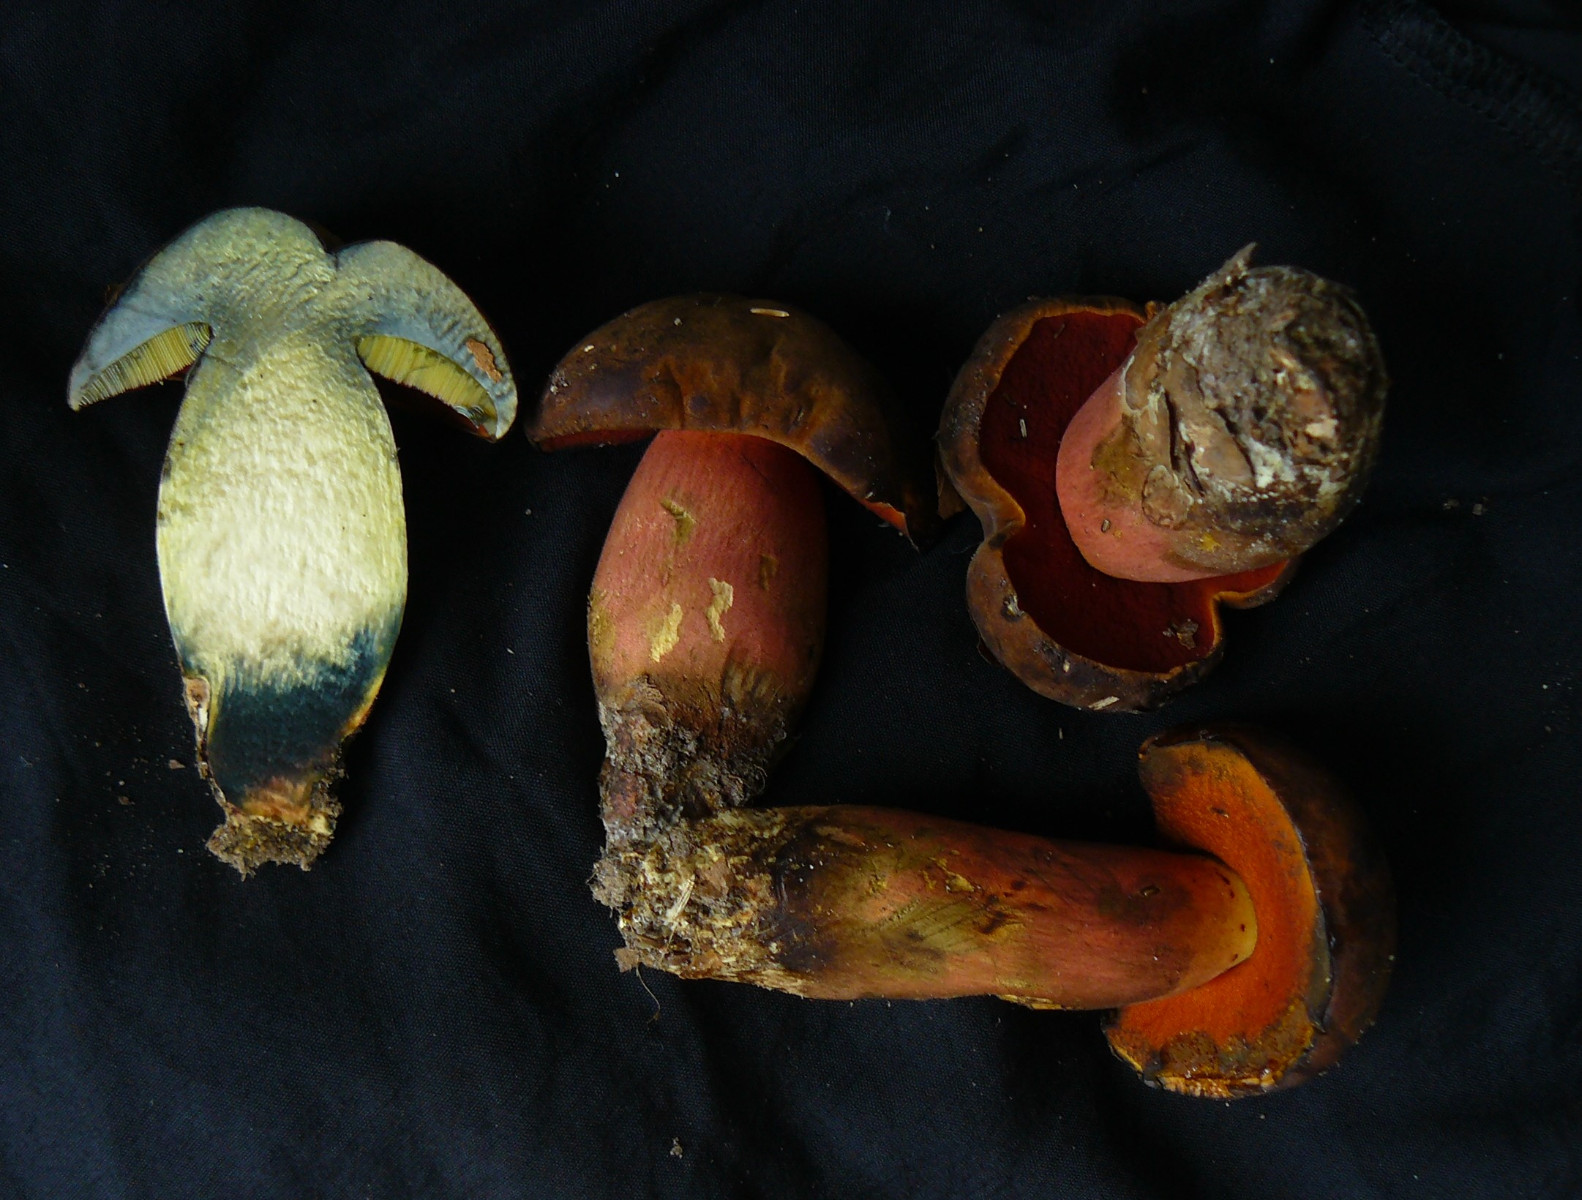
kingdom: Fungi
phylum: Basidiomycota
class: Agaricomycetes
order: Boletales
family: Boletaceae
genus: Neoboletus
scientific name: Neoboletus erythropus
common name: punktstokket indigorørhat
